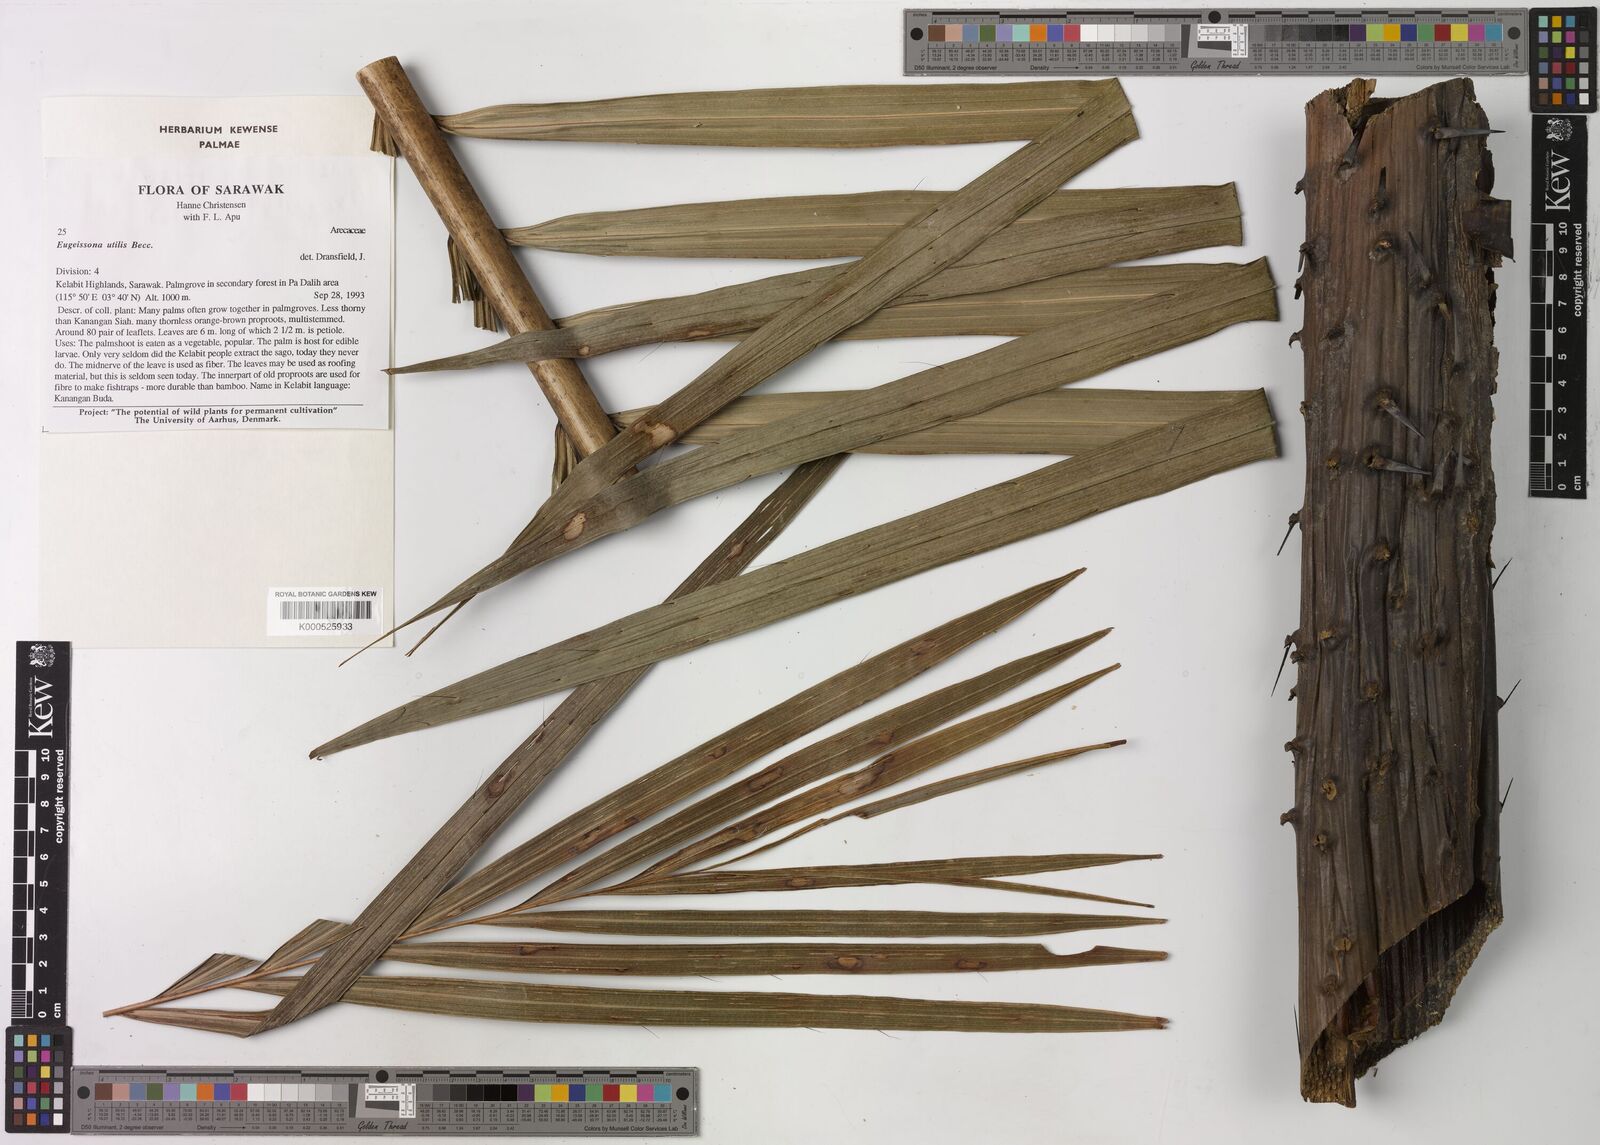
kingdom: Plantae
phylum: Tracheophyta
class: Liliopsida
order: Arecales
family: Arecaceae
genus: Eugeissona
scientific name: Eugeissona utilis
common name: Wild bornean sago palm
